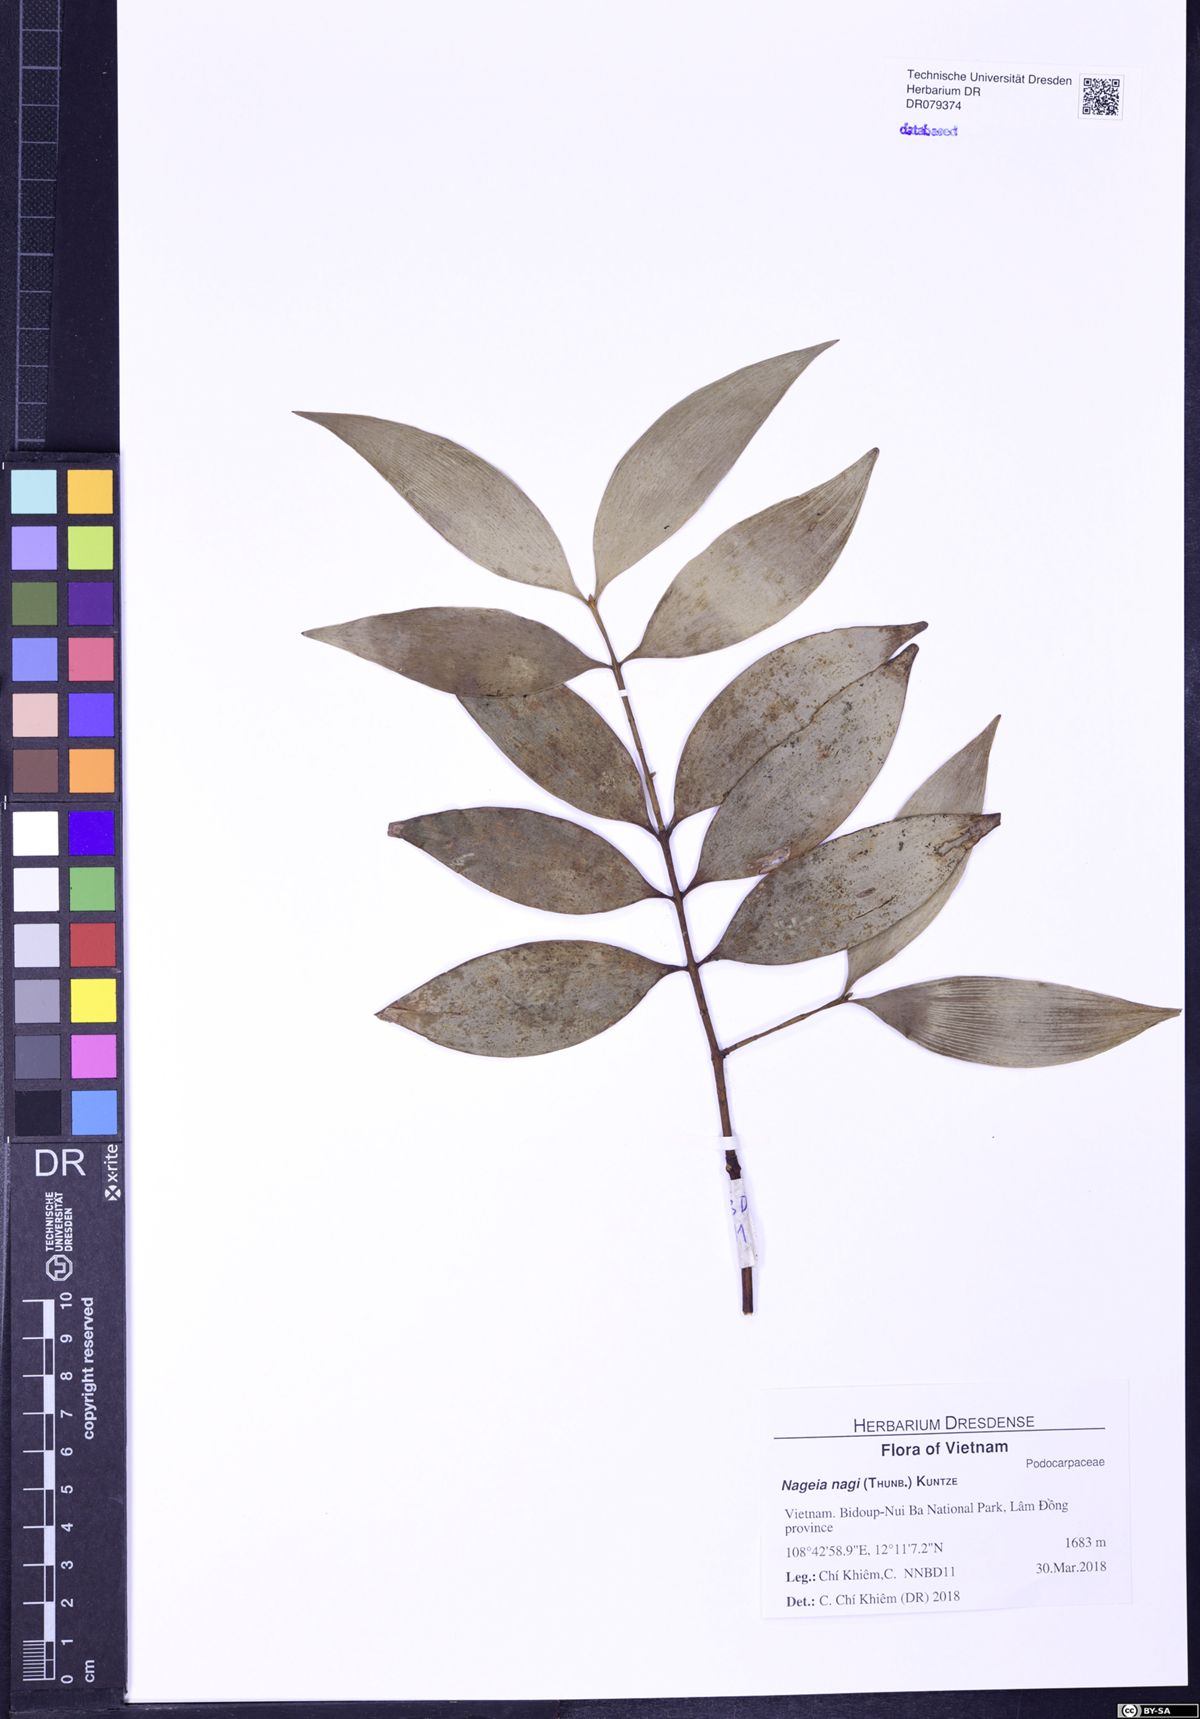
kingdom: Plantae
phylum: Tracheophyta
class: Pinopsida
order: Pinales
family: Podocarpaceae
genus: Nageia
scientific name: Nageia nagi
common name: Kaphal
